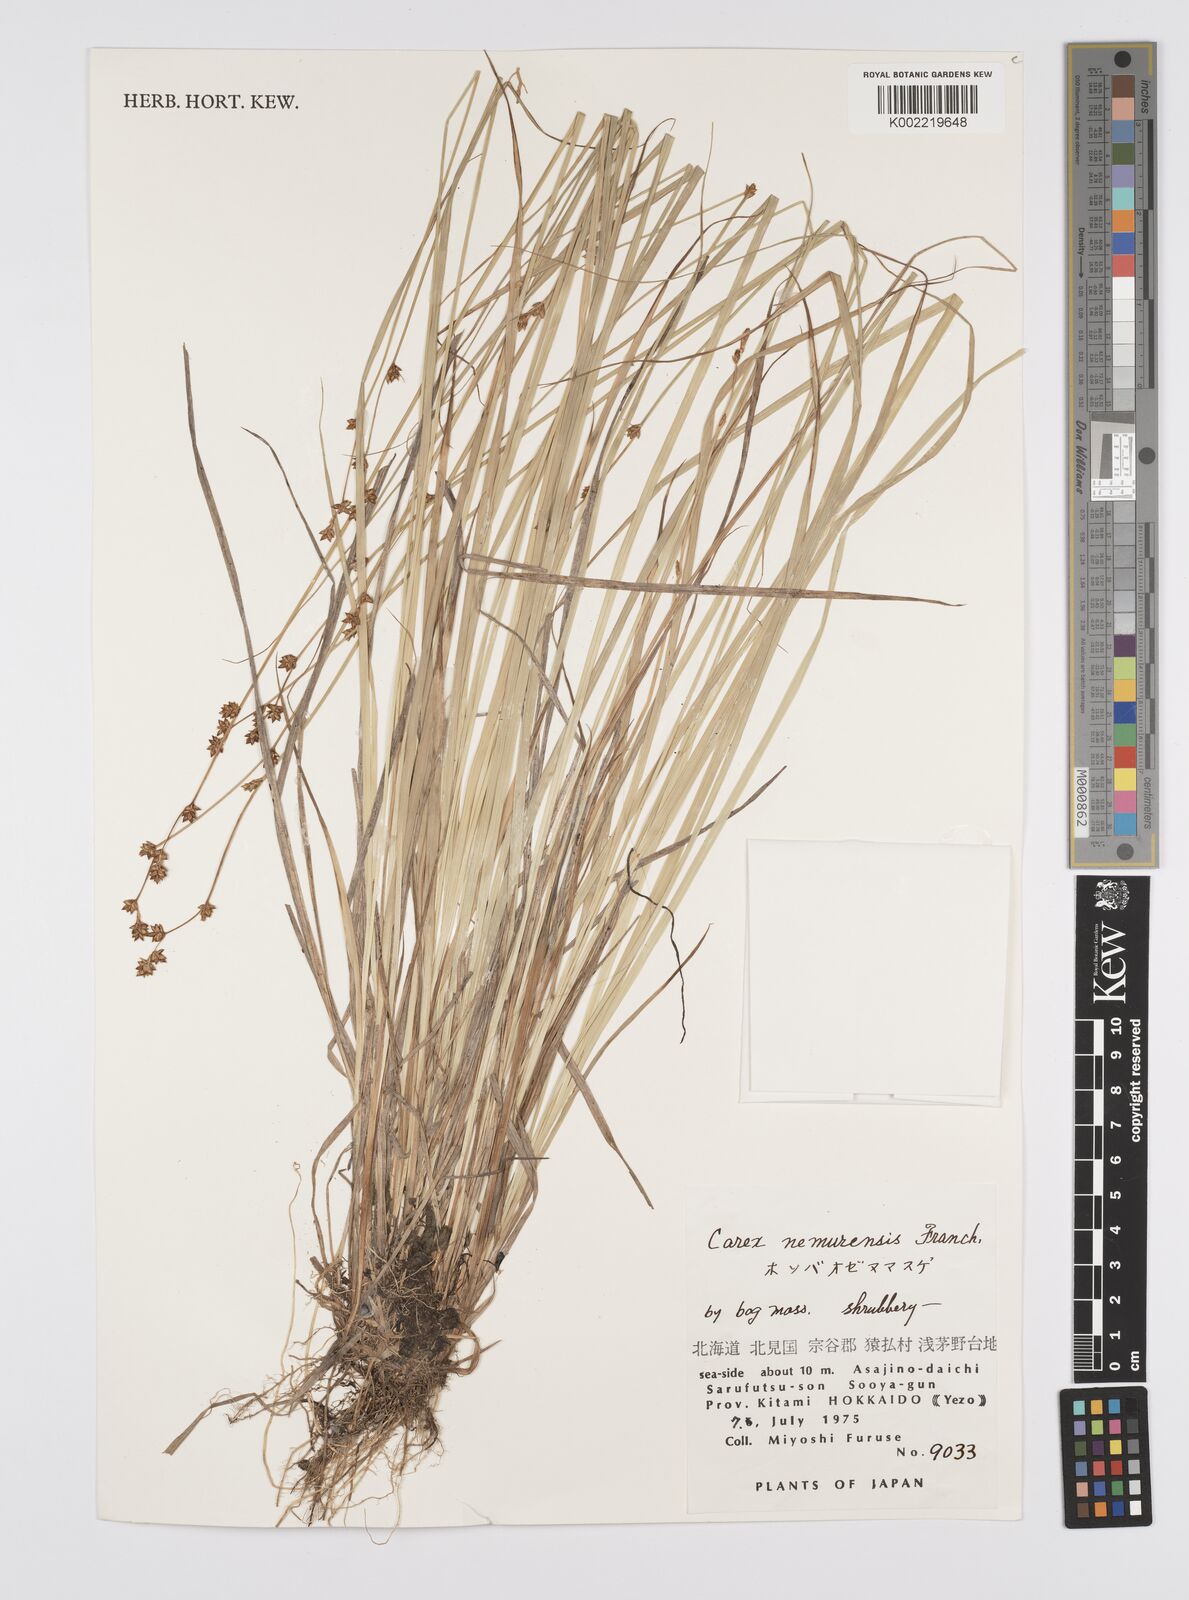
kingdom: Plantae
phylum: Tracheophyta
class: Liliopsida
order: Poales
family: Cyperaceae
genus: Carex
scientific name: Carex traiziscana
